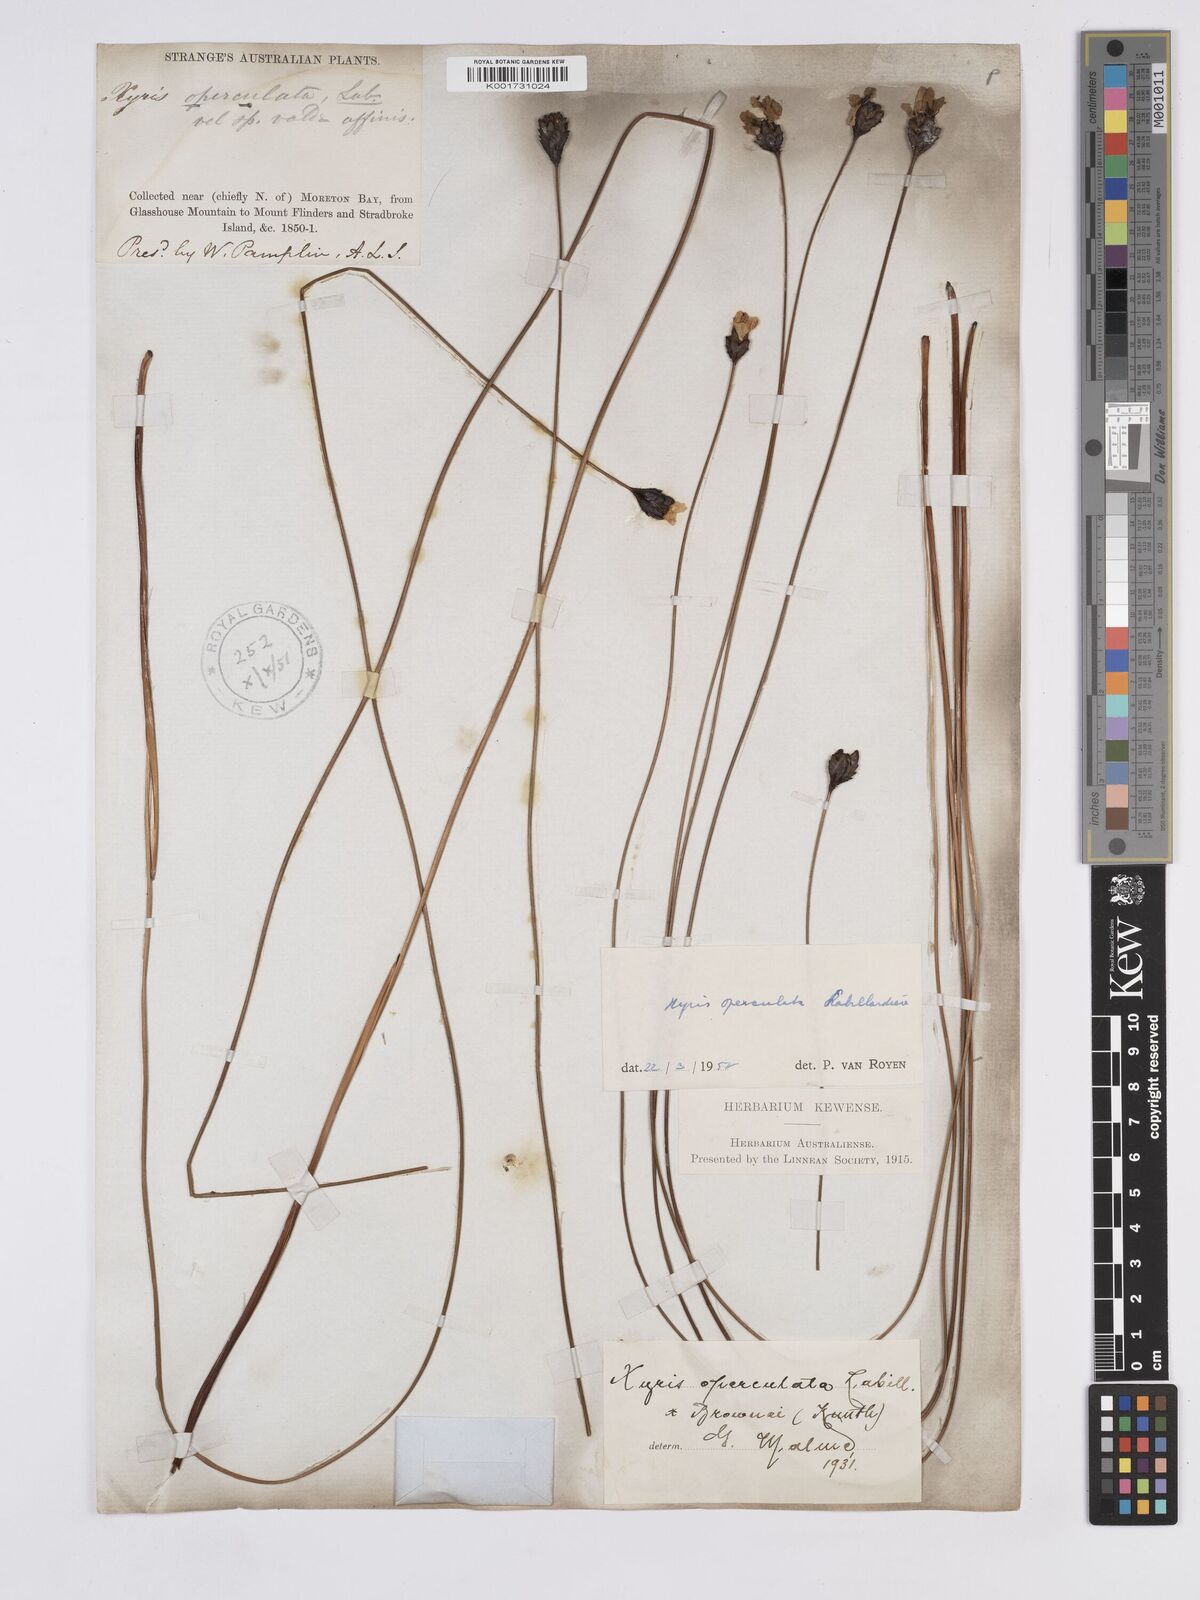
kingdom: Plantae
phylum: Tracheophyta
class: Liliopsida
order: Poales
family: Xyridaceae
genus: Xyris
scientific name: Xyris operculata
